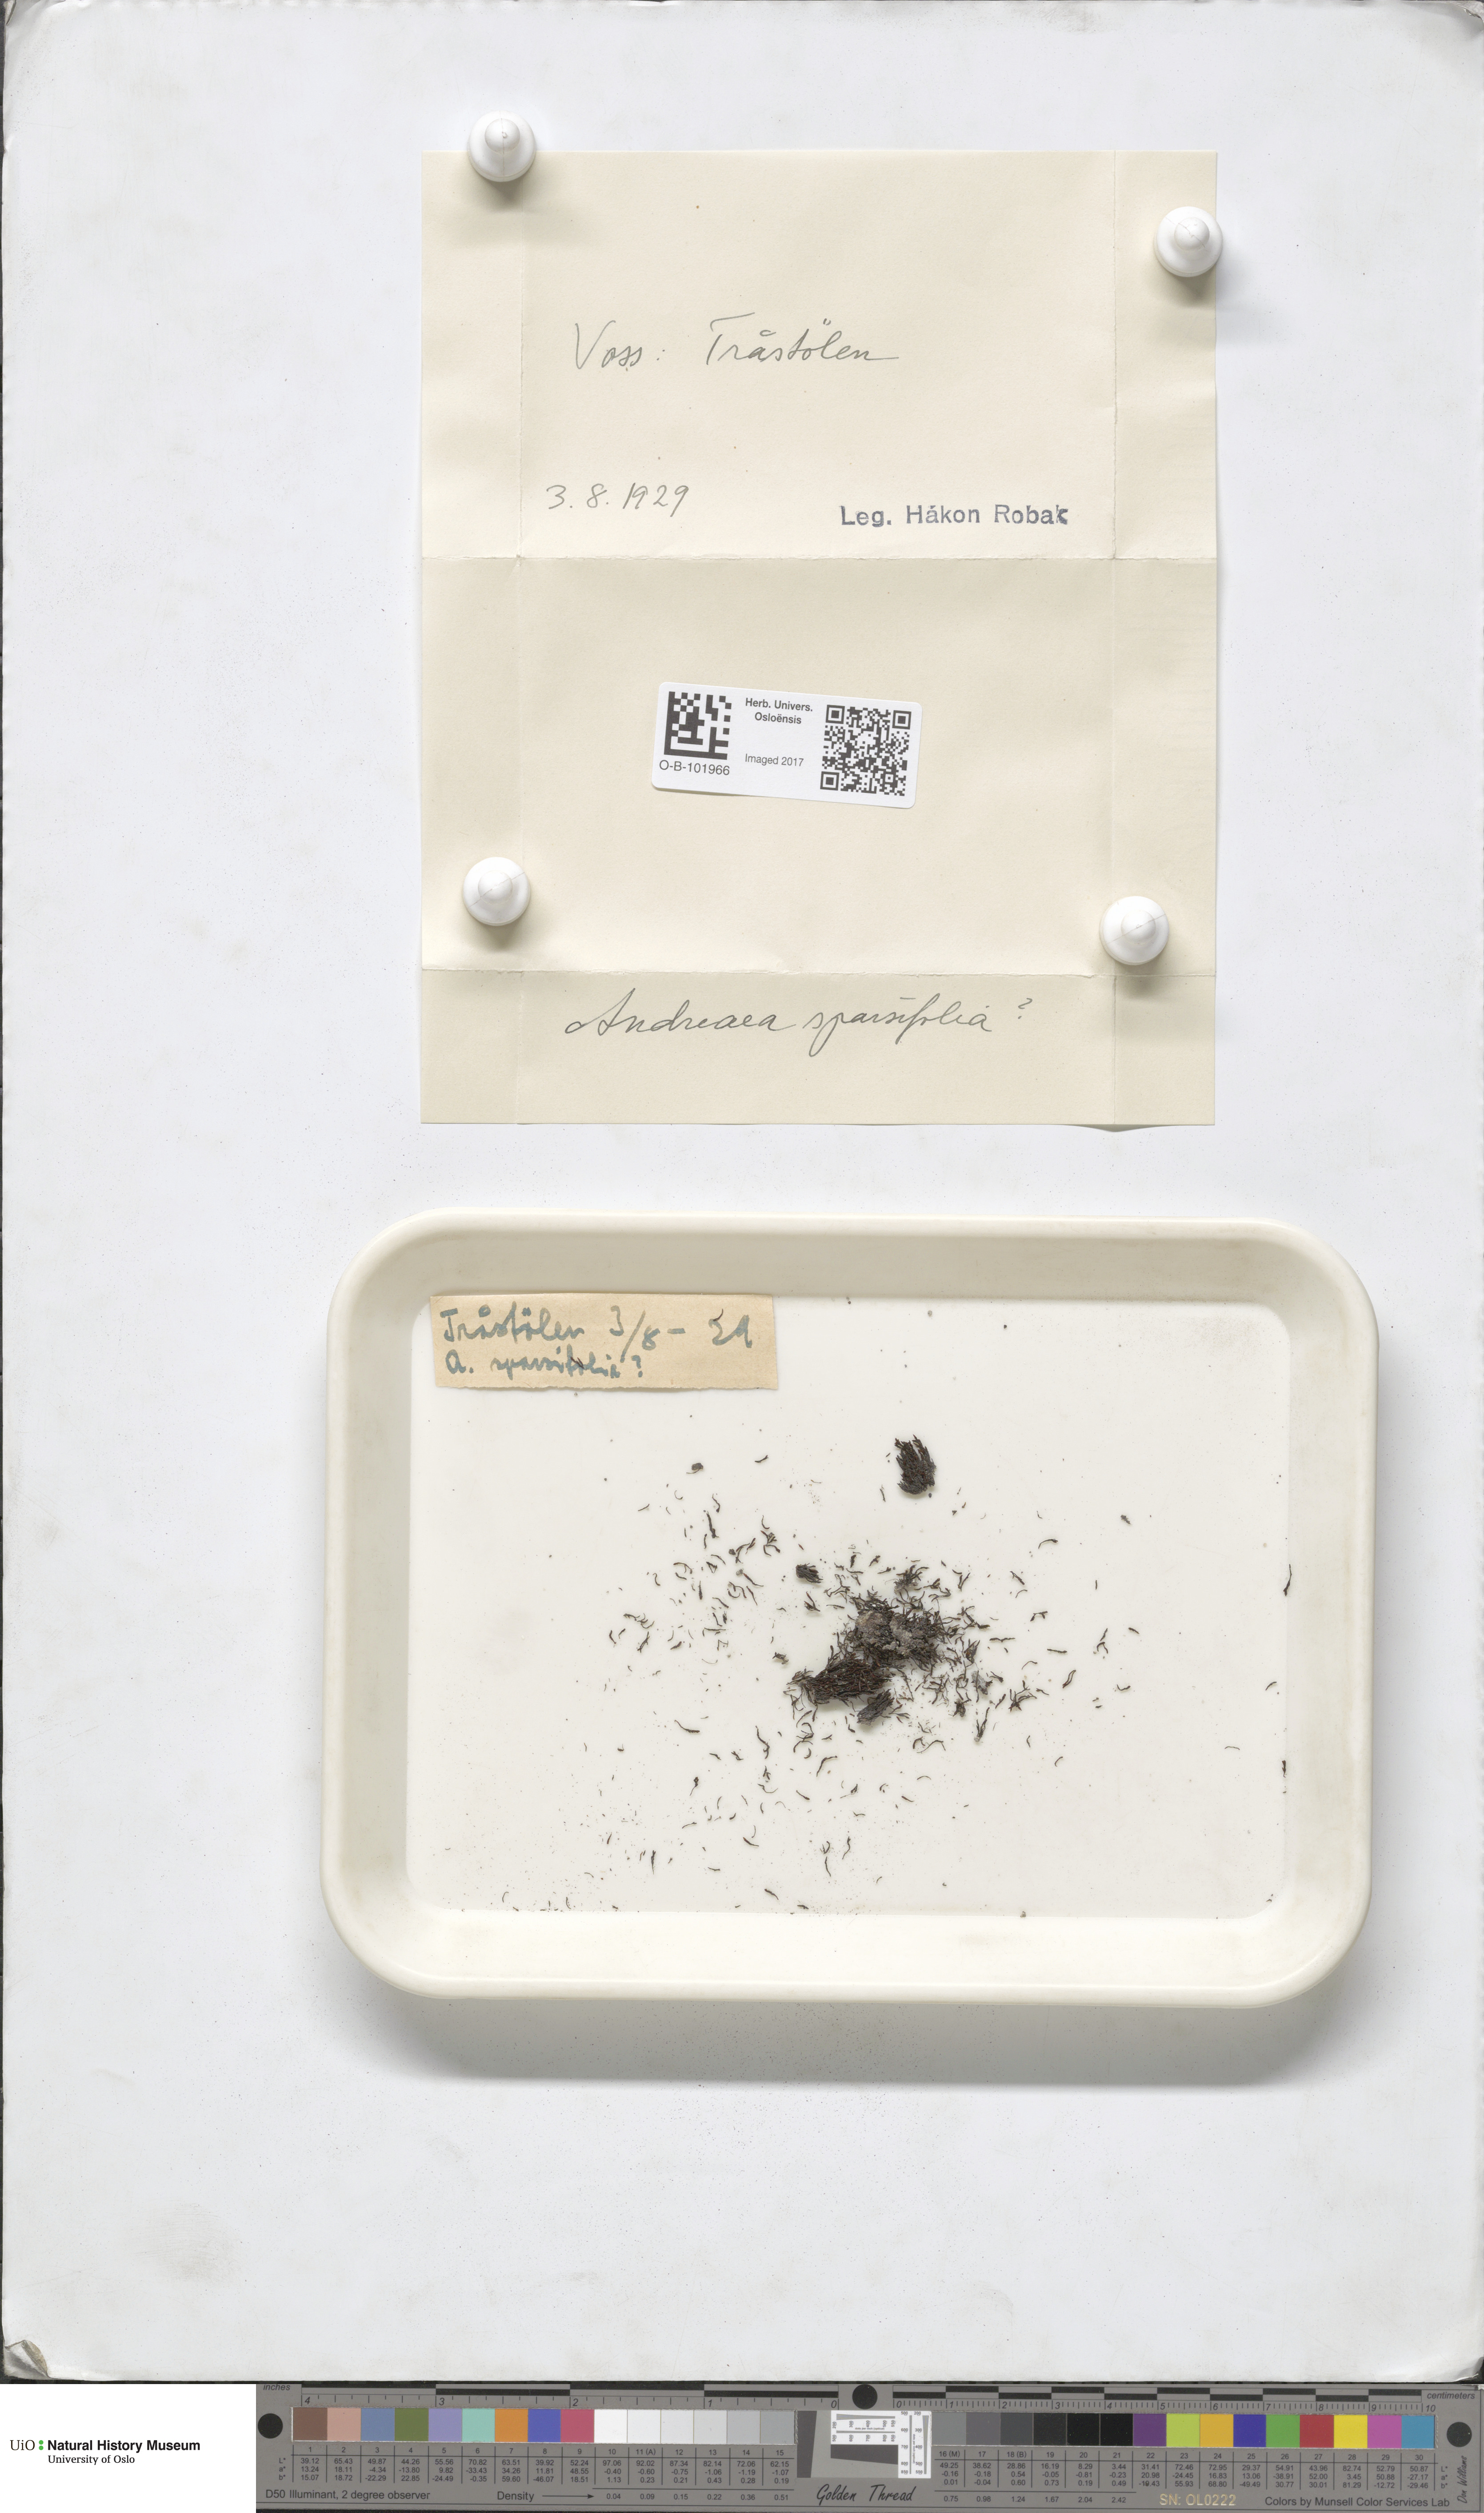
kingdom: Plantae
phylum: Bryophyta
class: Andreaeopsida
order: Andreaeales
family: Andreaeaceae
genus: Andreaea
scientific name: Andreaea rupestris
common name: Black rock moss
